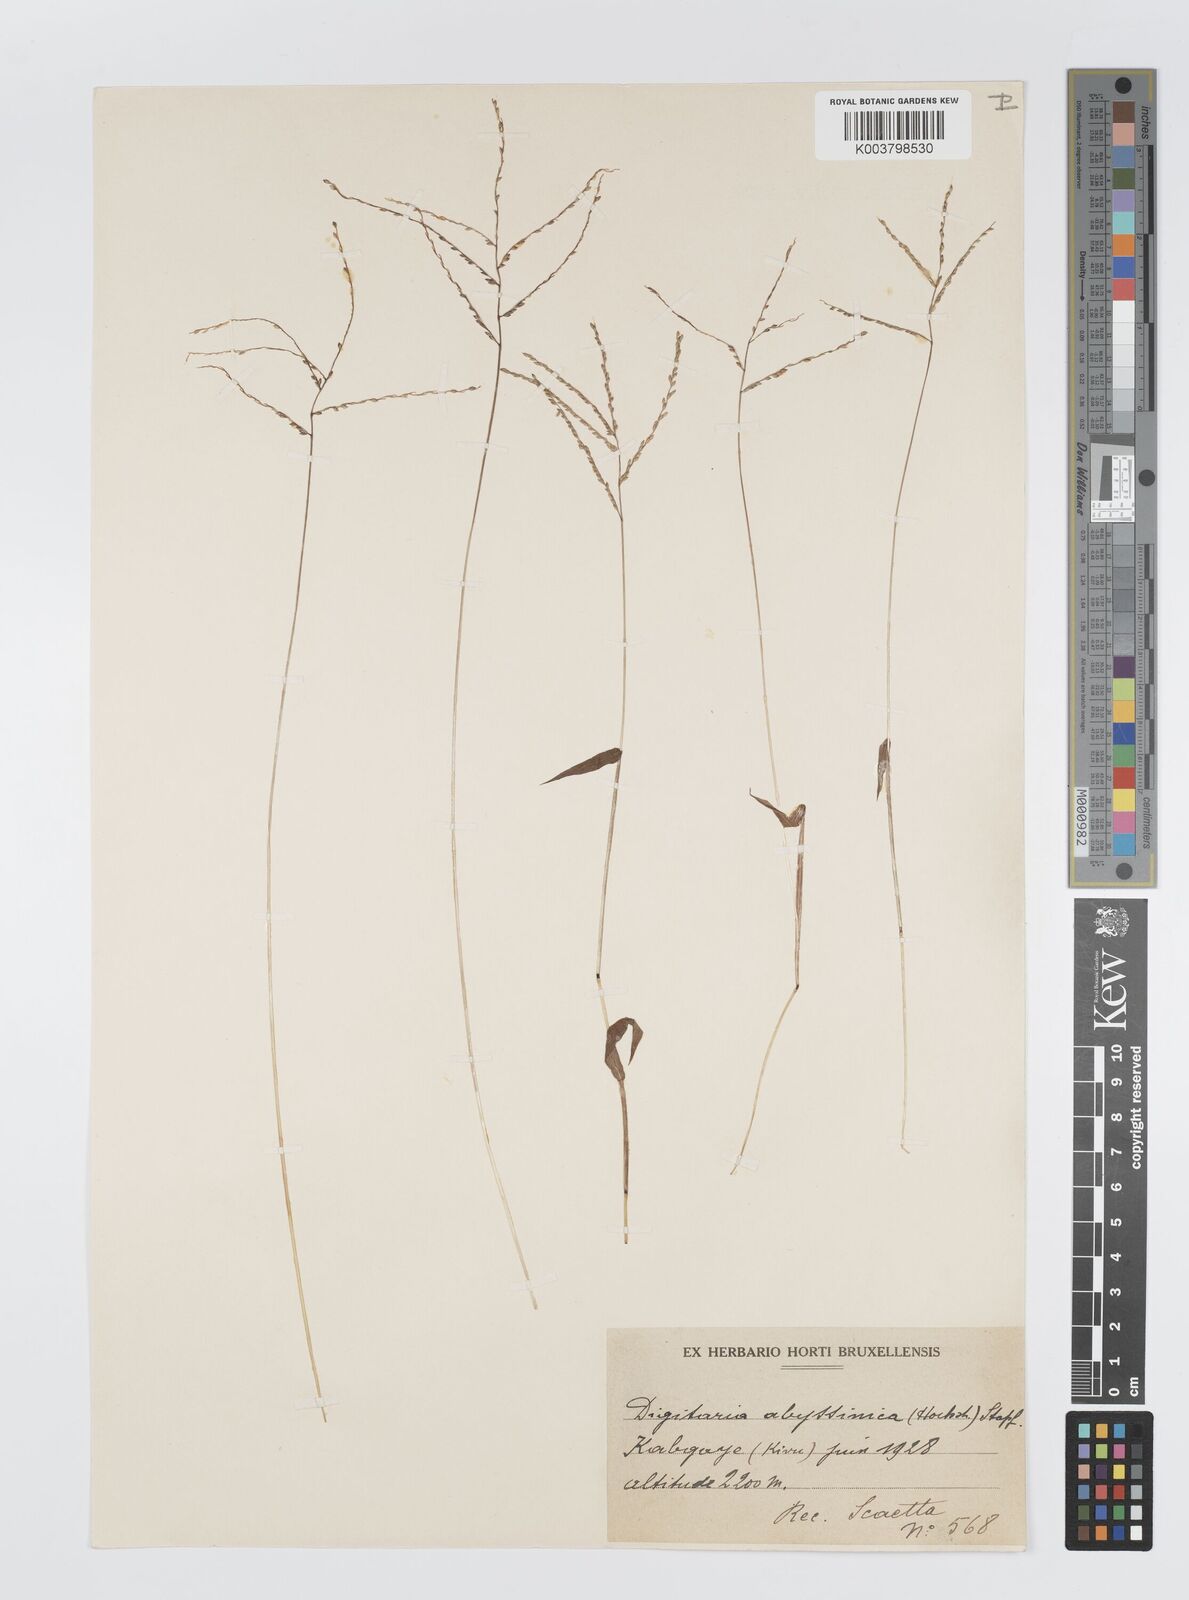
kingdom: Plantae
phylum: Tracheophyta
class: Liliopsida
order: Poales
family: Poaceae
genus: Digitaria
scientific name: Digitaria abyssinica
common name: African couchgrass
